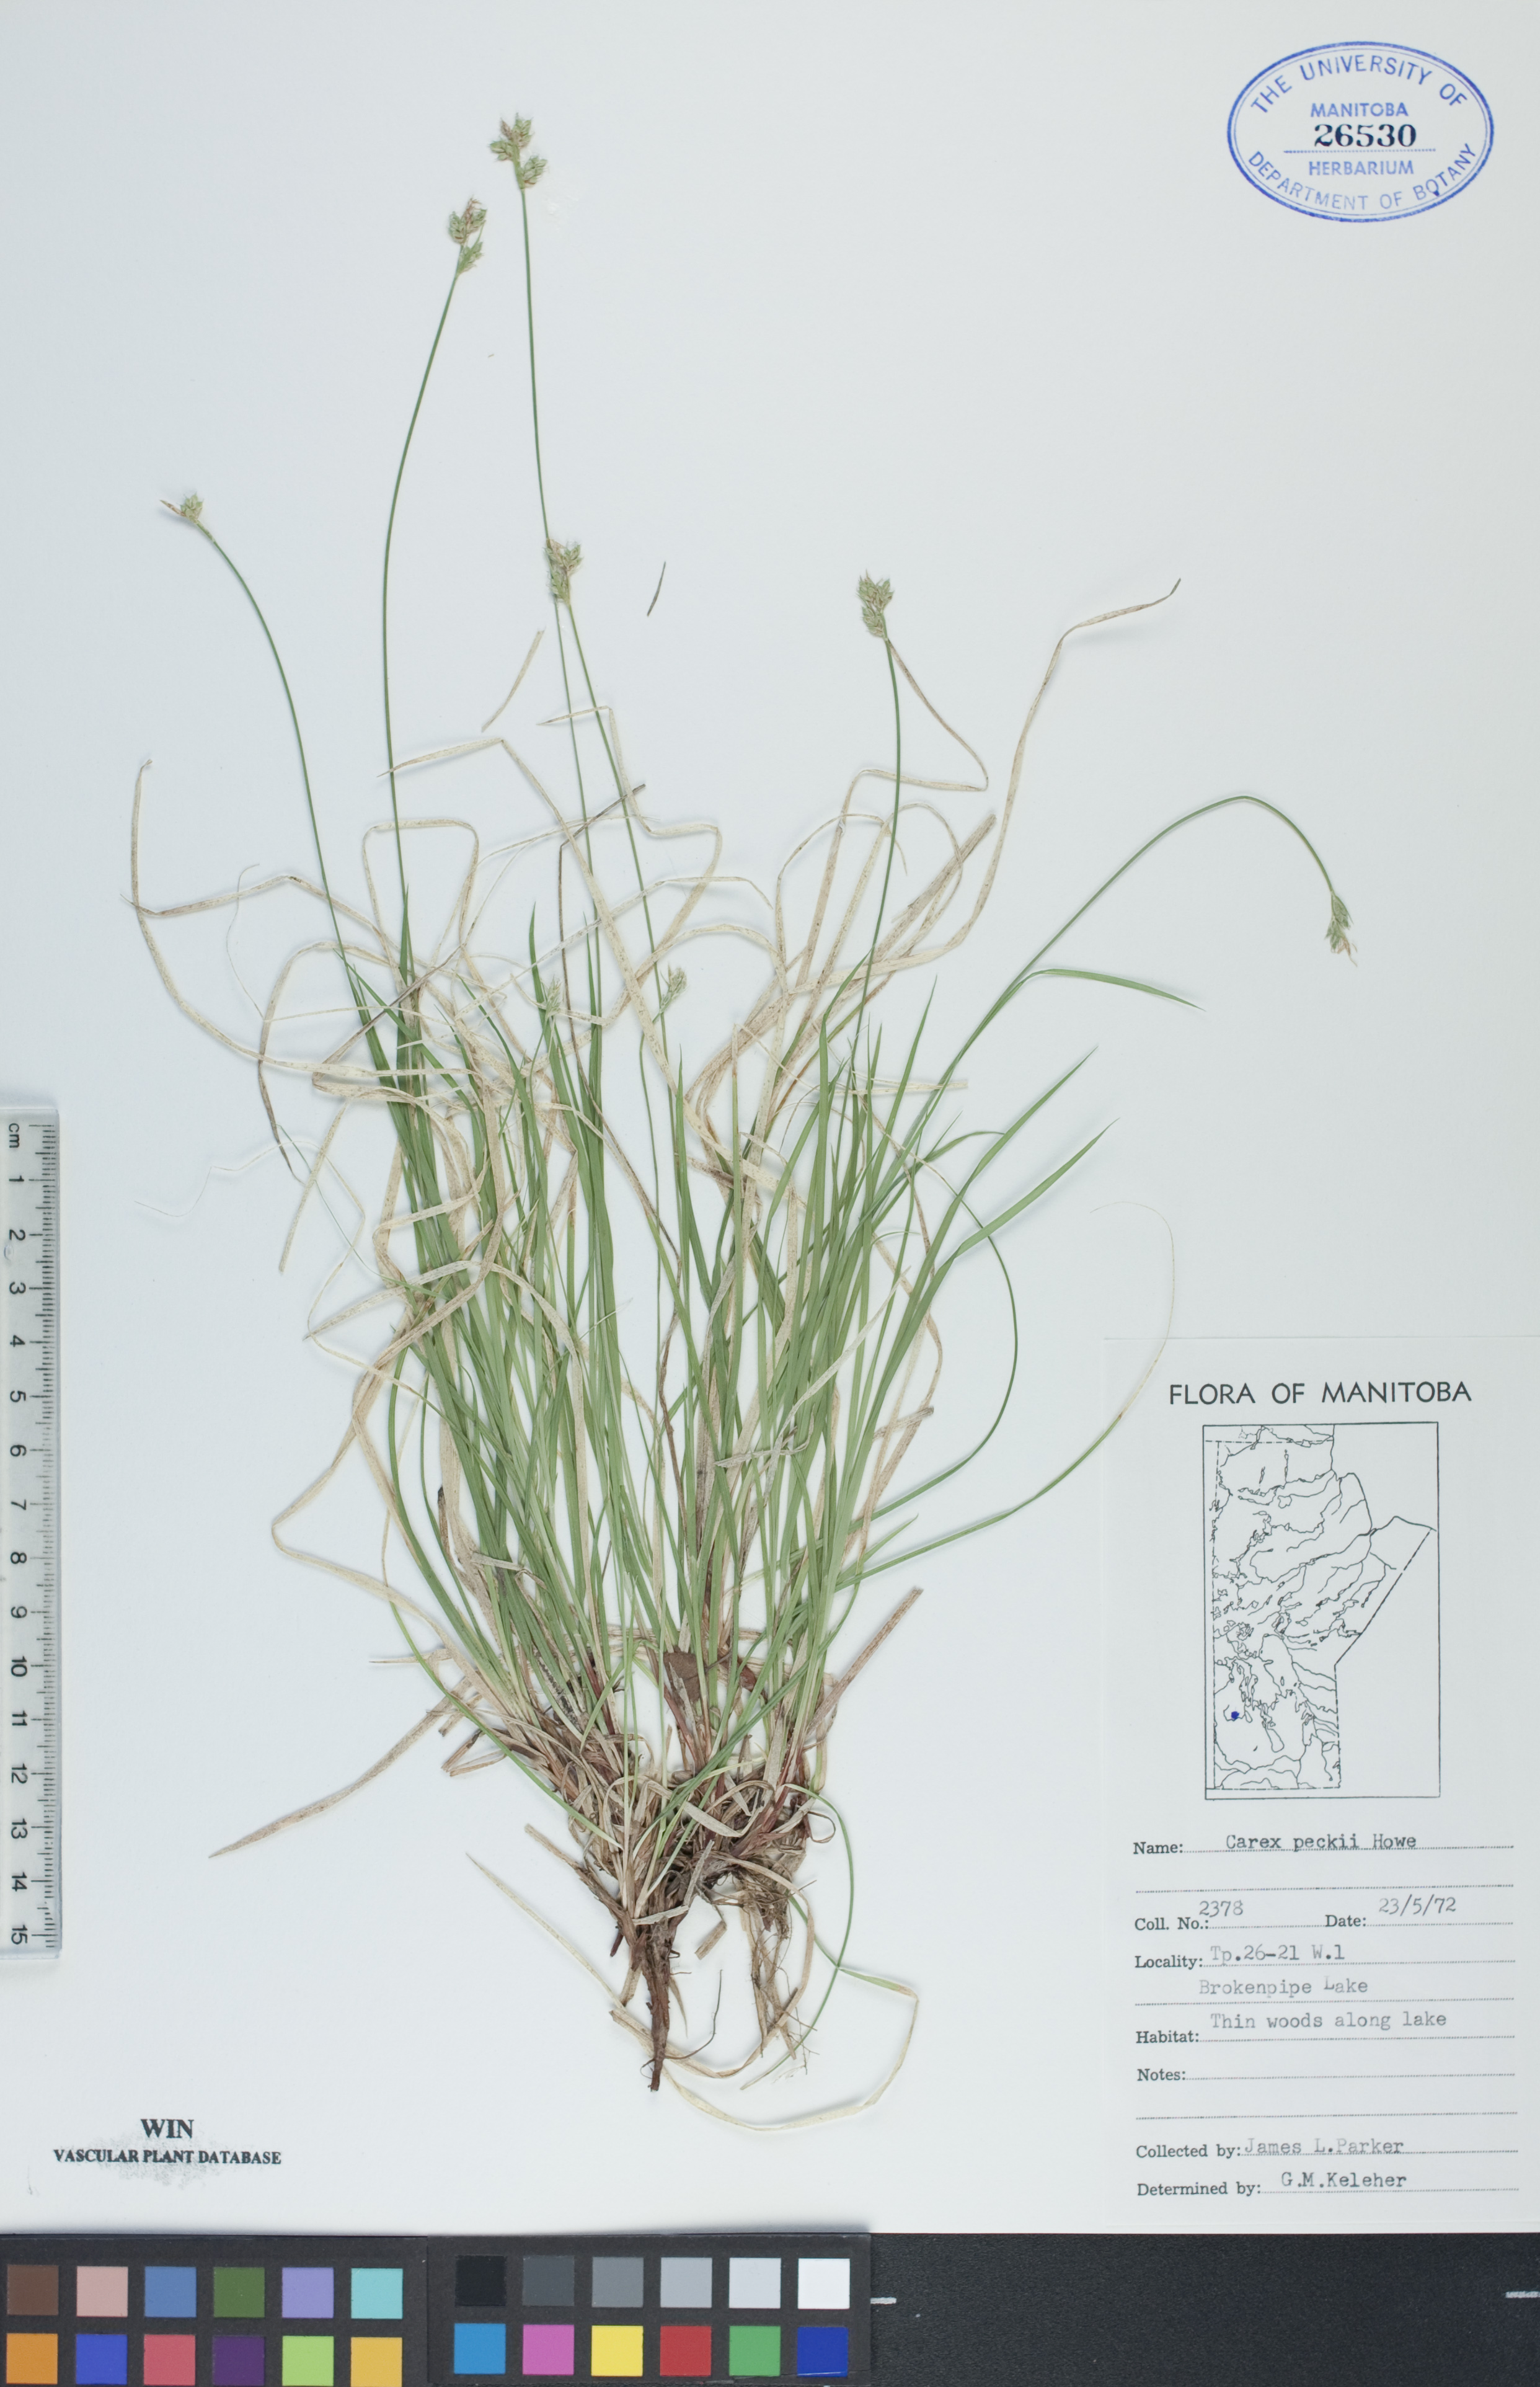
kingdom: Plantae
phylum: Tracheophyta
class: Liliopsida
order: Poales
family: Cyperaceae
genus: Carex
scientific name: Carex peckii
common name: Peck's oak sedge
